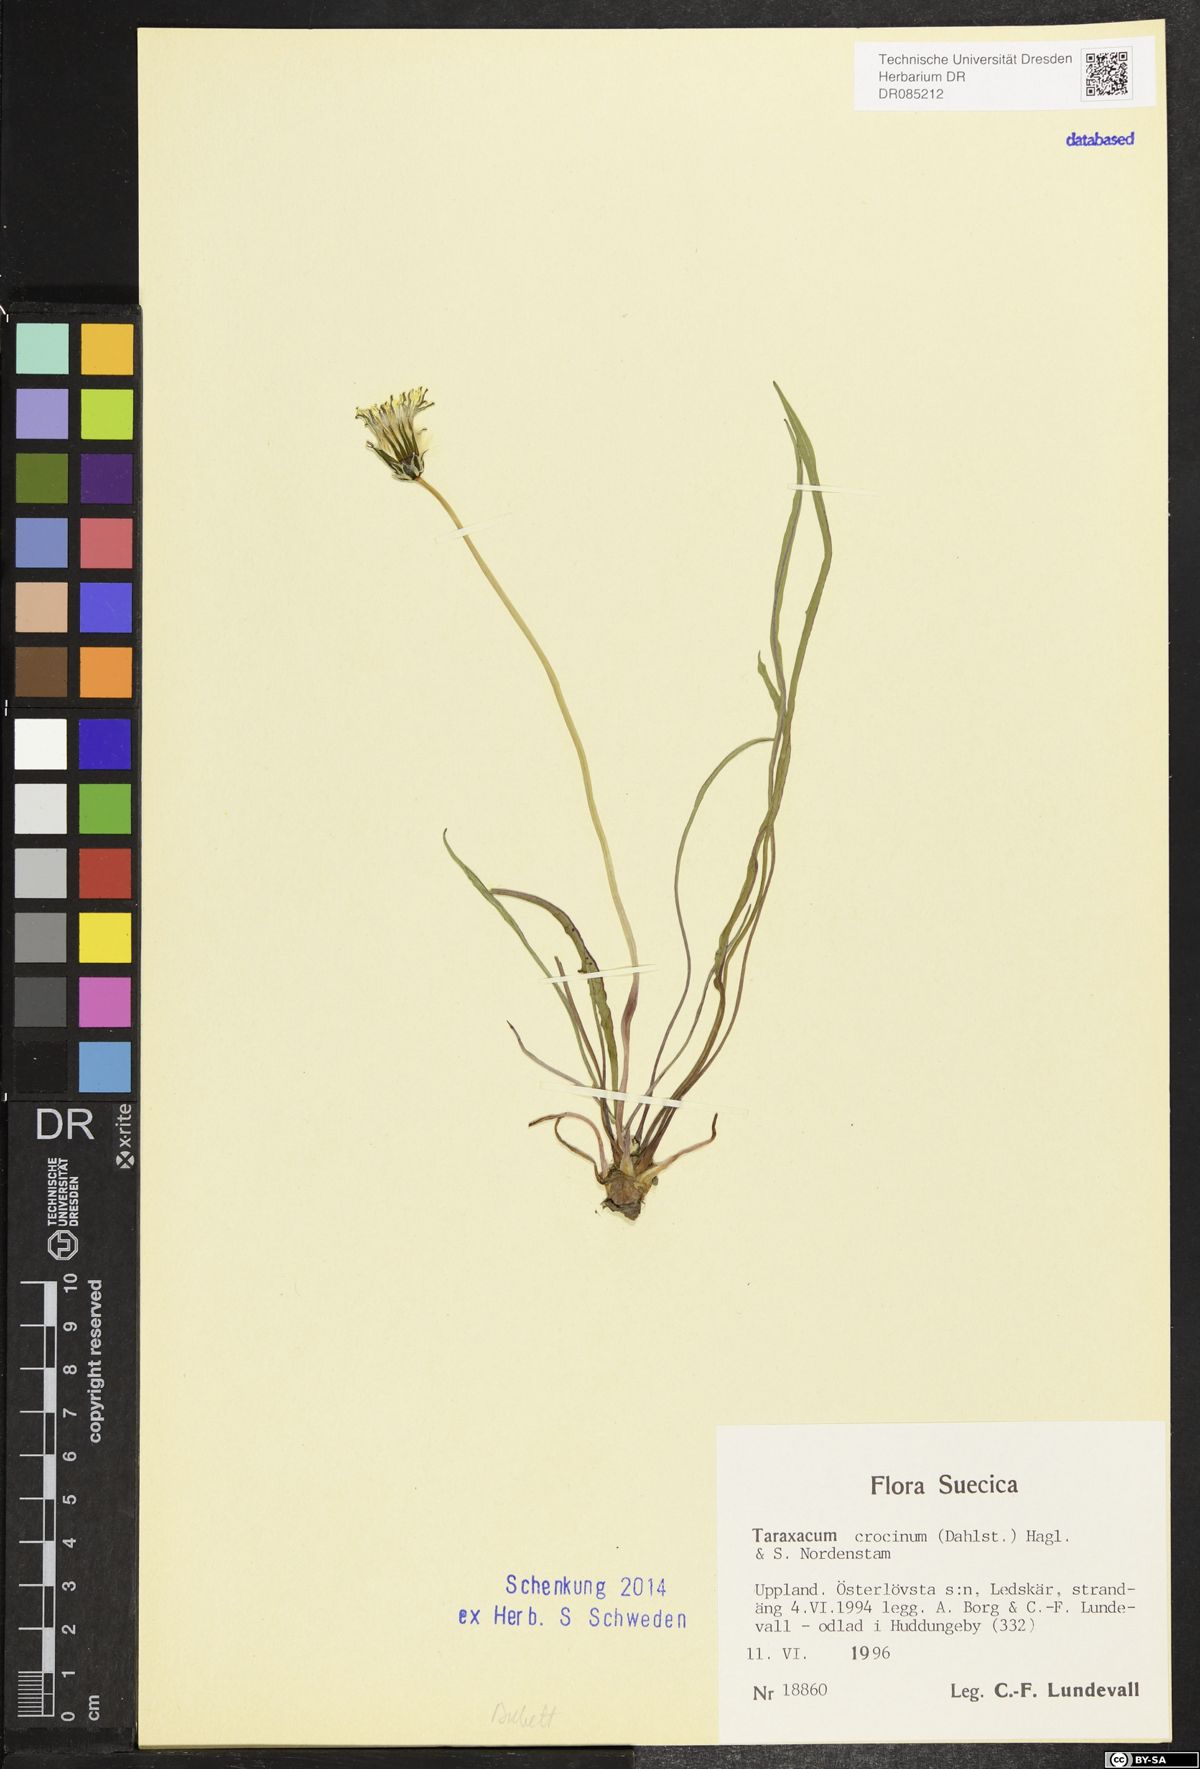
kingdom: Plantae
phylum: Tracheophyta
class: Magnoliopsida
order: Asterales
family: Asteraceae
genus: Taraxacum
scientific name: Taraxacum crocinum
